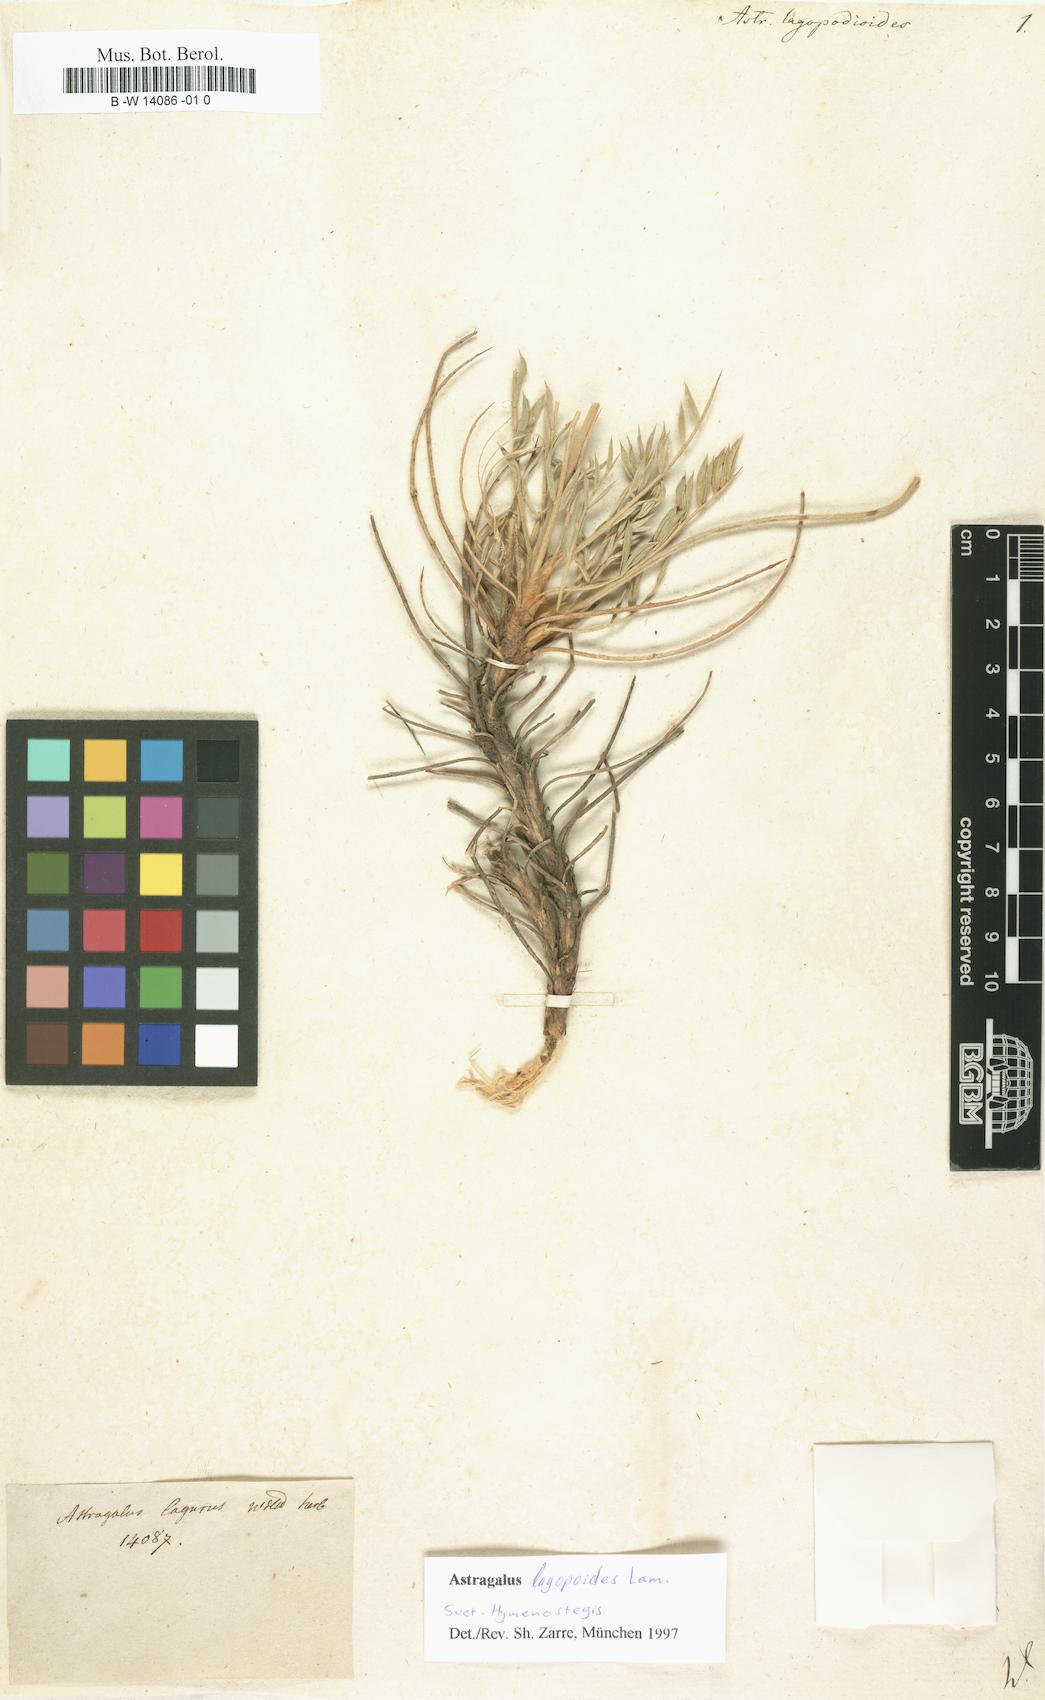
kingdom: Plantae
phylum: Tracheophyta
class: Magnoliopsida
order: Fabales
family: Fabaceae
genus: Astragalus
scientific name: Astragalus lagopodioides
